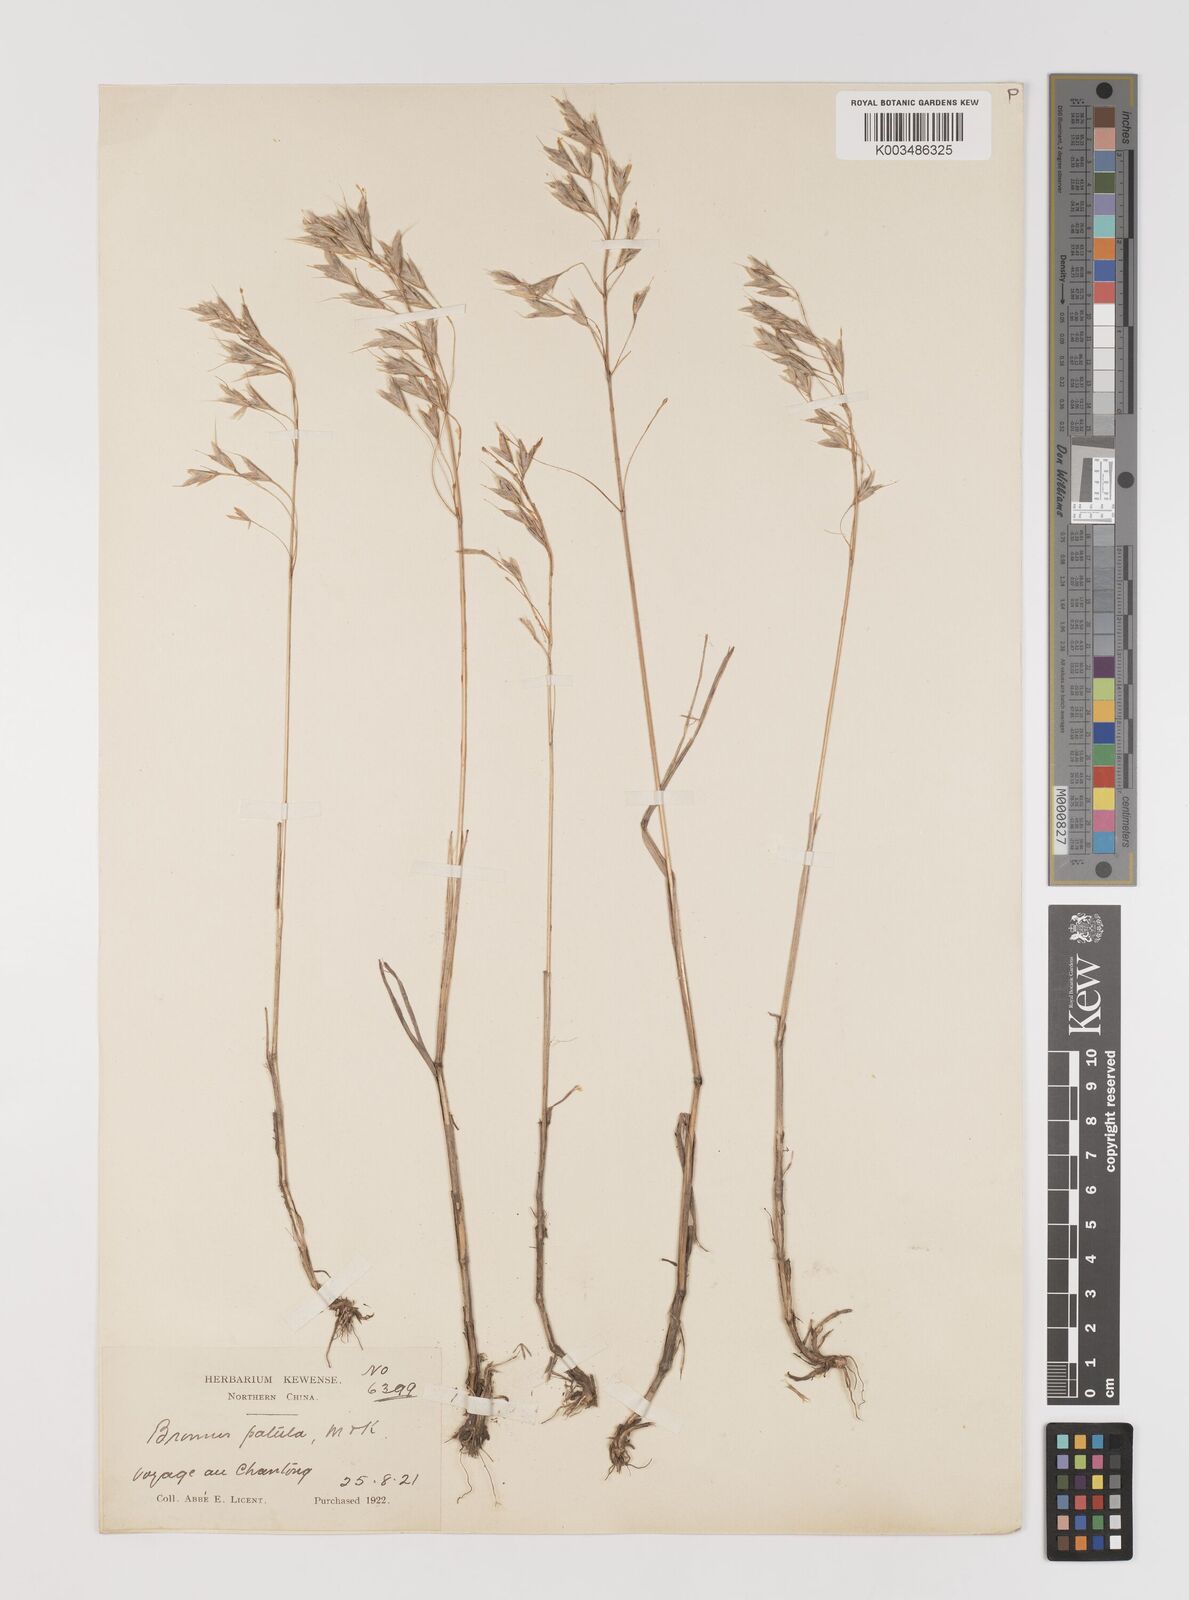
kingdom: Plantae
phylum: Tracheophyta
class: Liliopsida
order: Poales
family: Poaceae
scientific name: Poaceae
